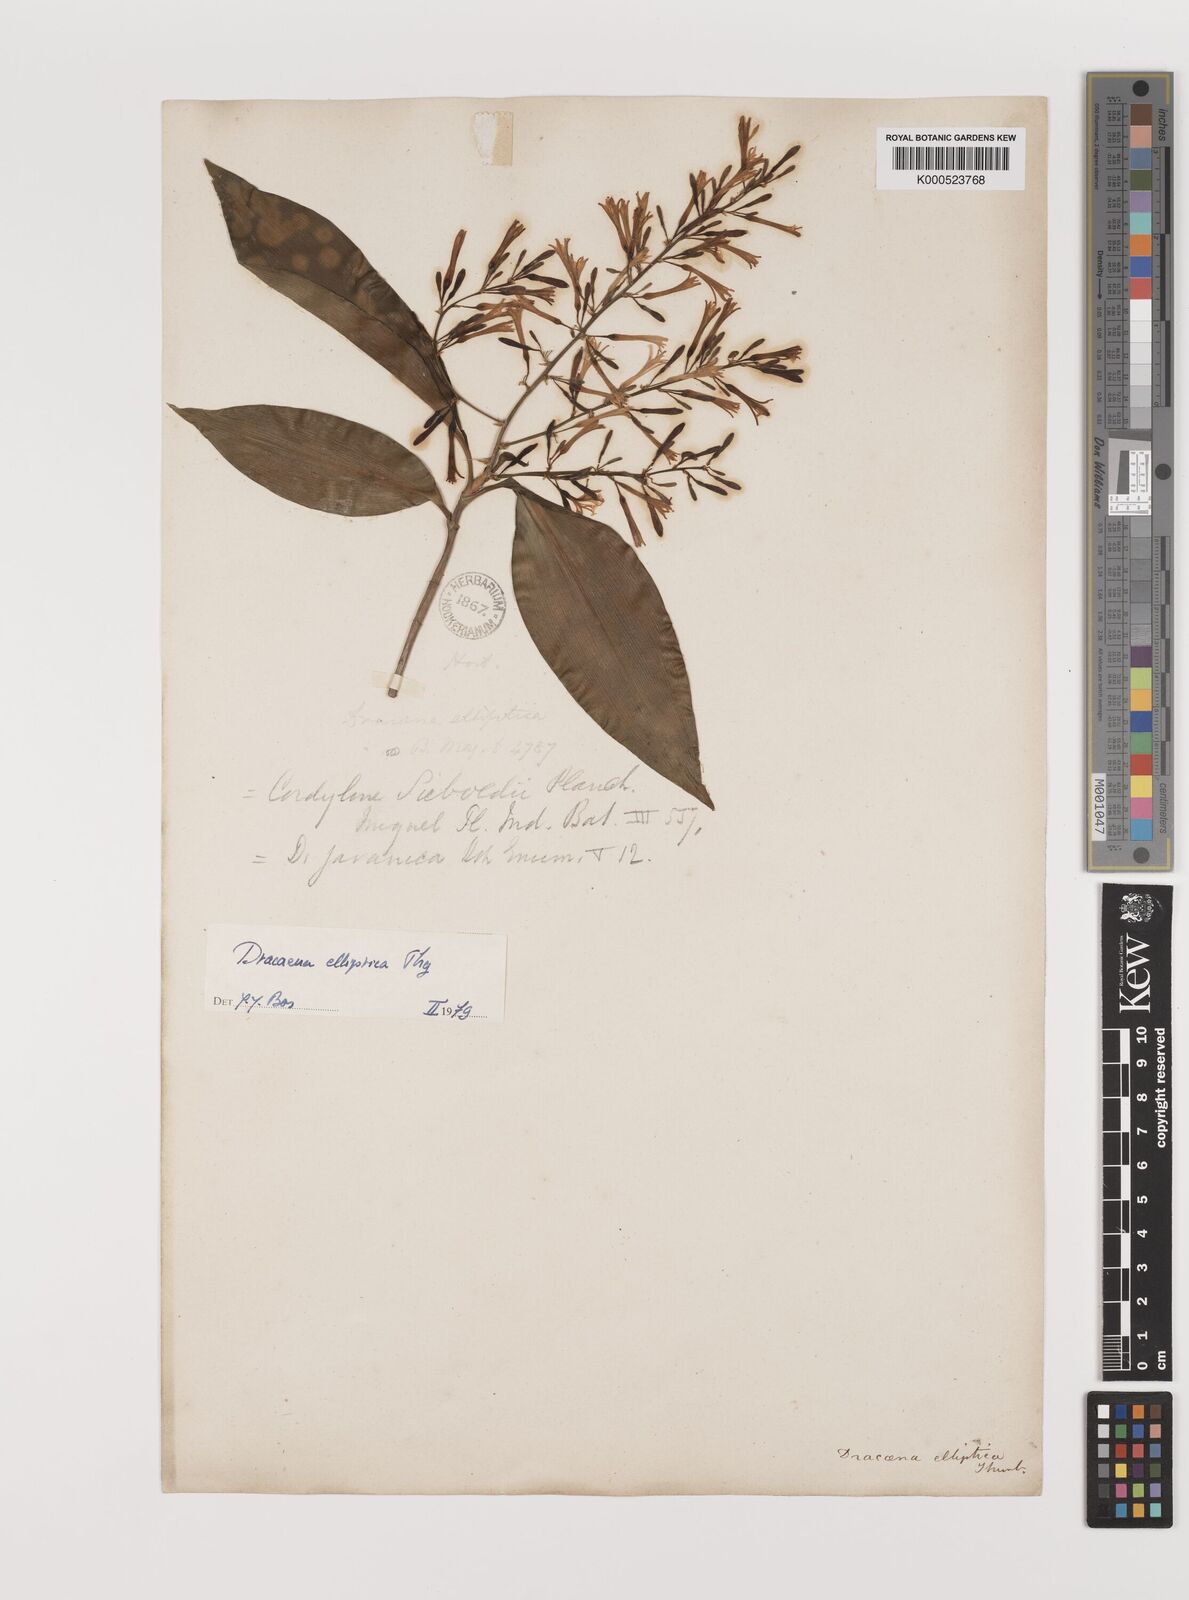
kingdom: Plantae
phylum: Tracheophyta
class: Liliopsida
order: Asparagales
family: Asparagaceae
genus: Dracaena
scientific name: Dracaena elliptica
